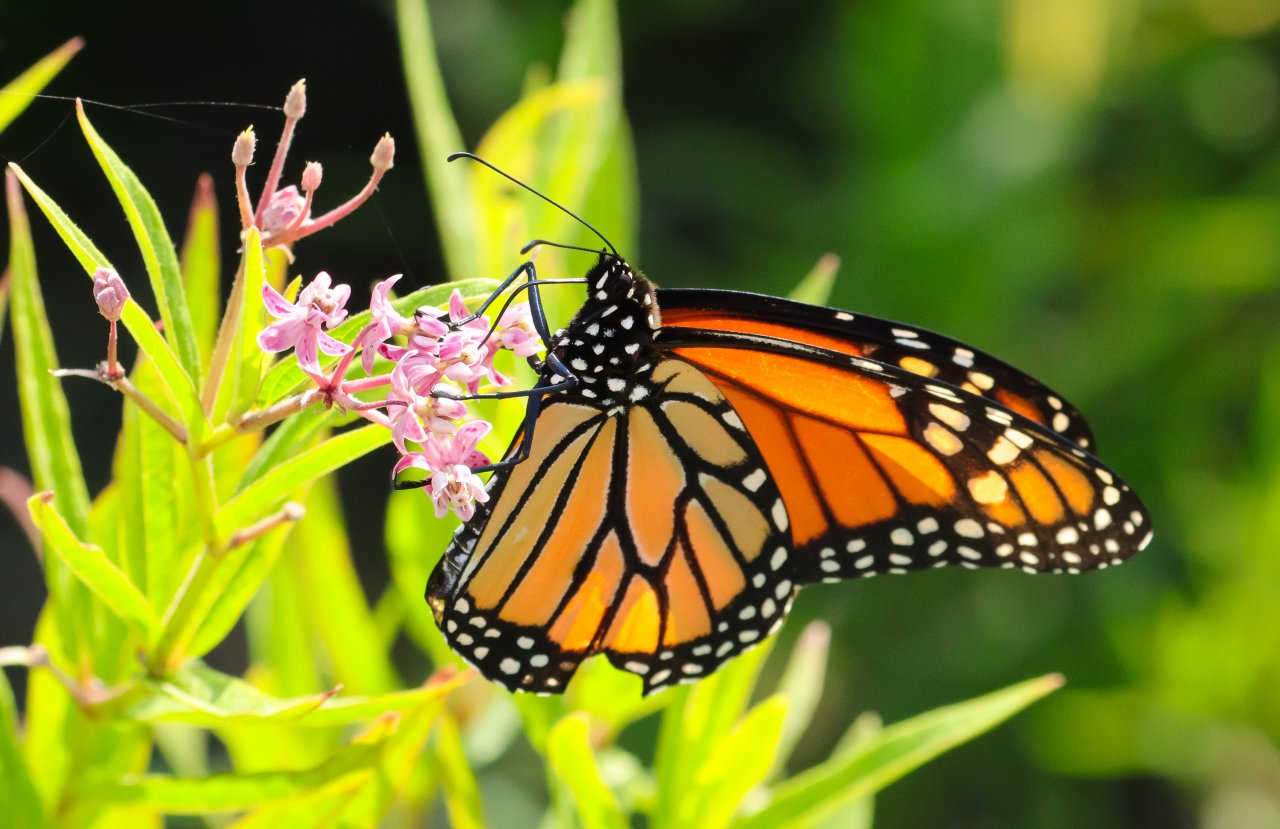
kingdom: Animalia
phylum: Arthropoda
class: Insecta
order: Lepidoptera
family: Nymphalidae
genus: Danaus
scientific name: Danaus plexippus
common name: Monarch
